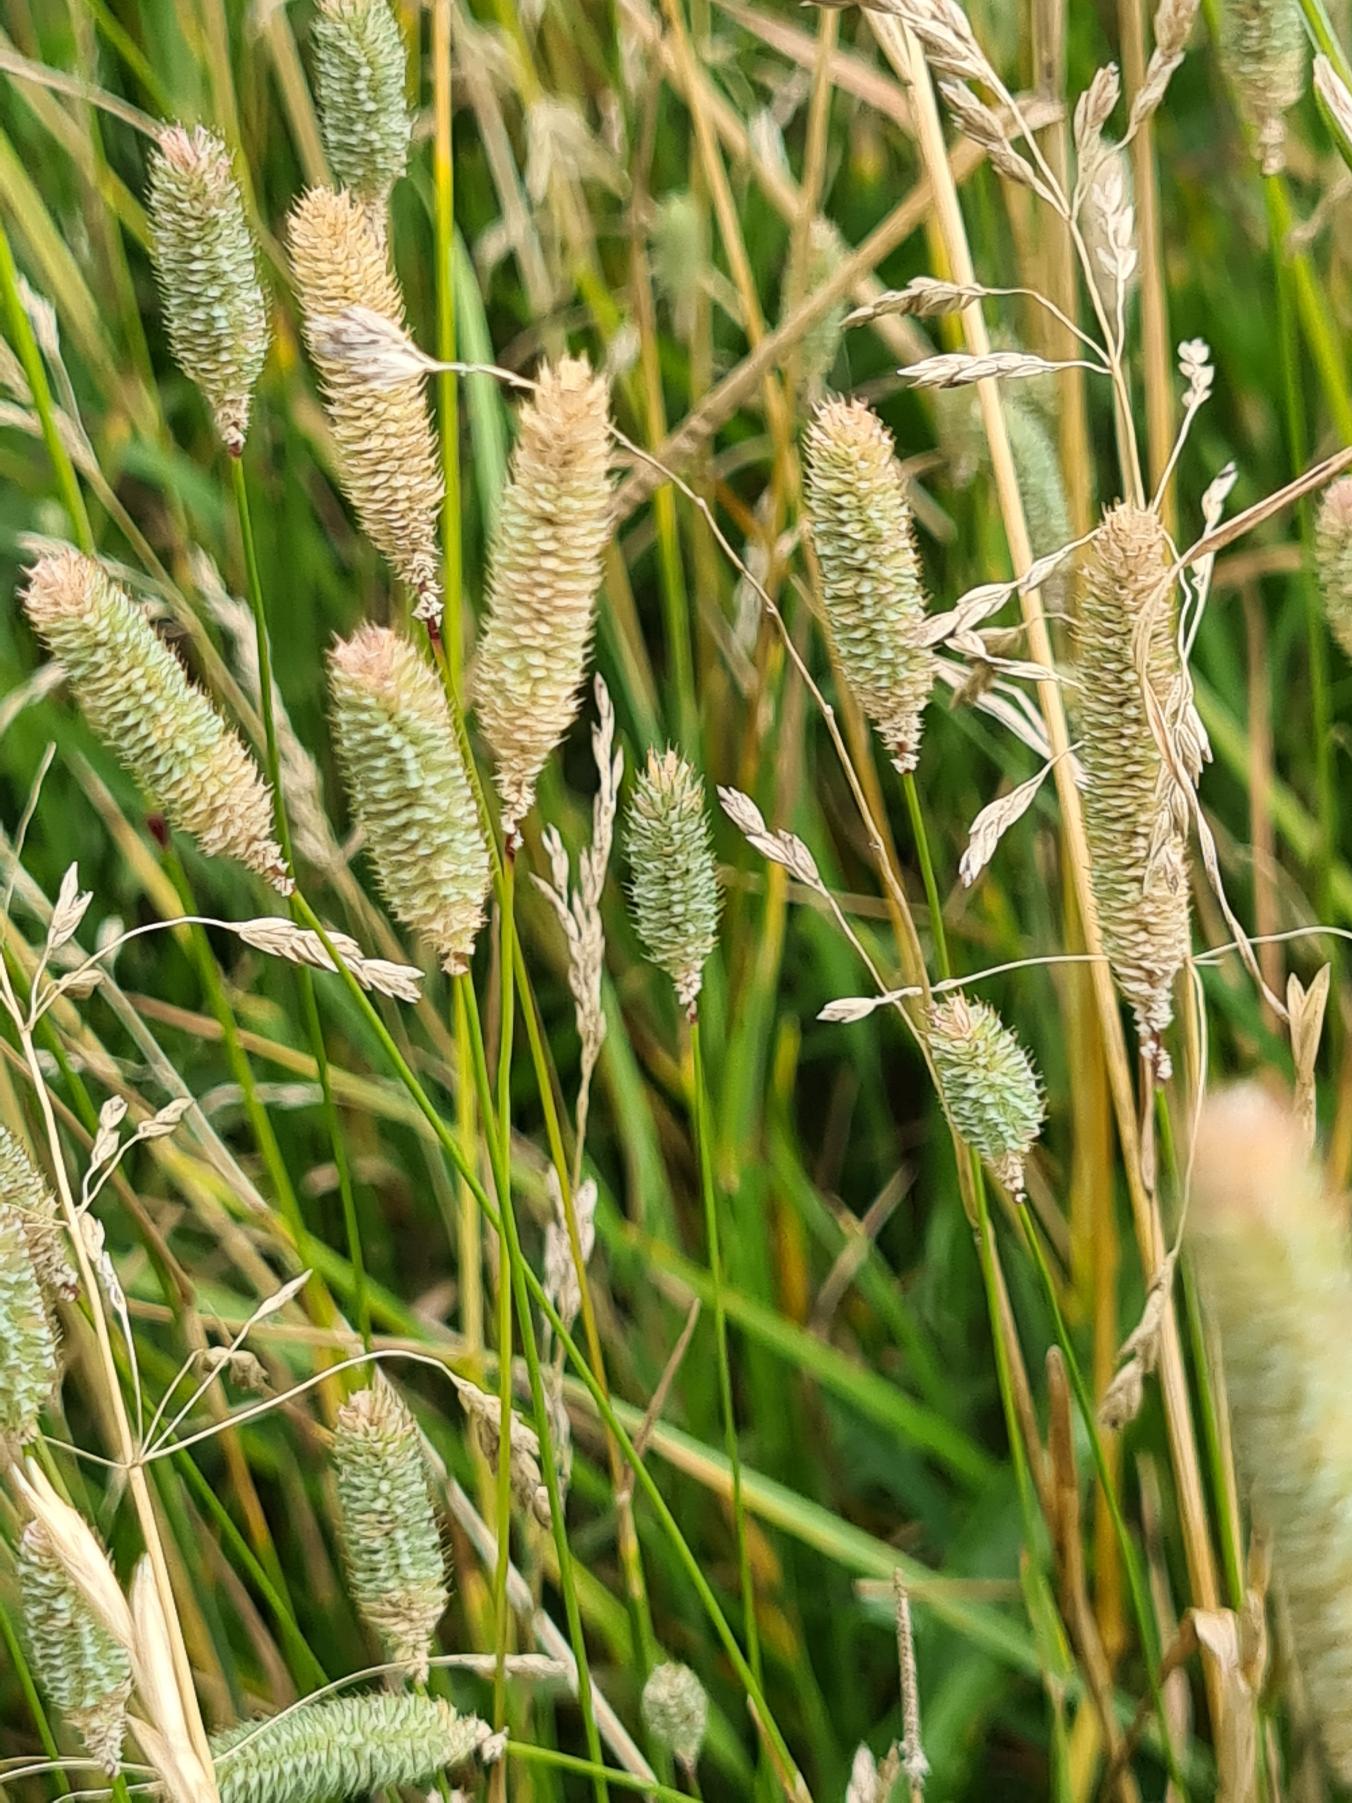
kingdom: Plantae
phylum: Tracheophyta
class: Liliopsida
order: Poales
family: Poaceae
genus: Phleum
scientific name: Phleum pratense
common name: Eng-rottehale
